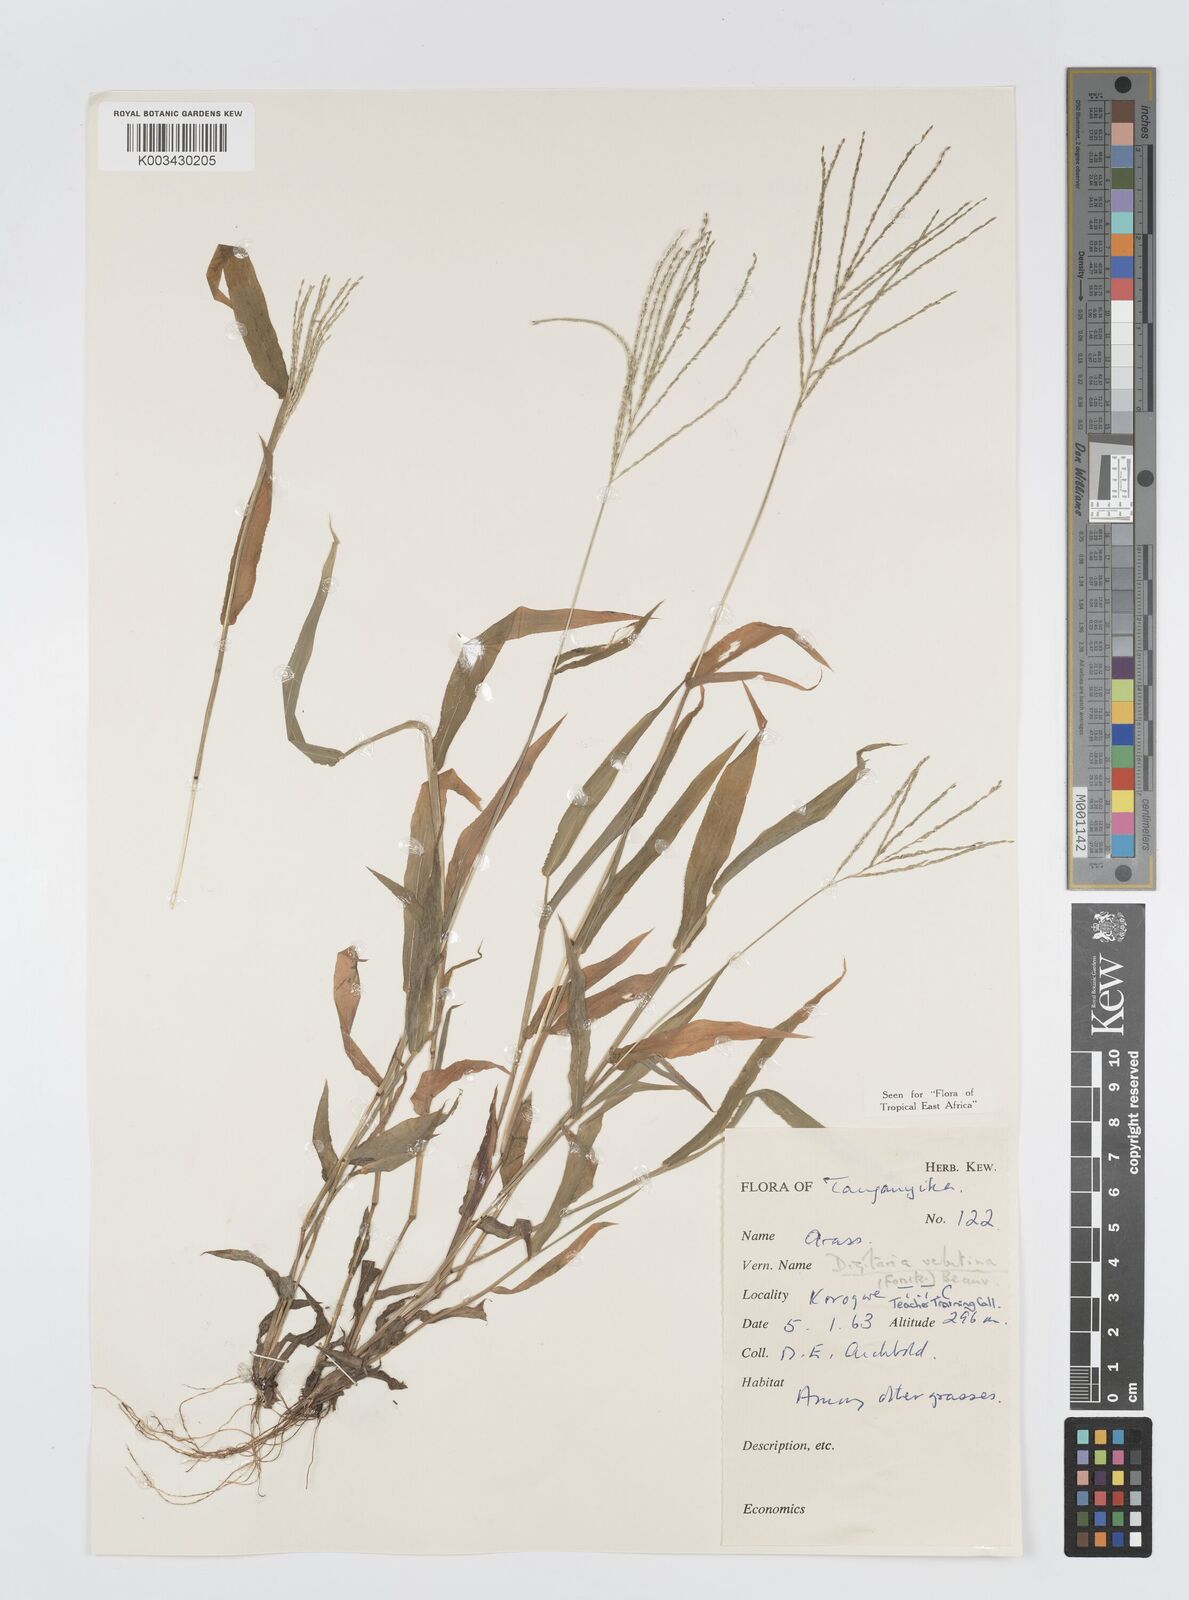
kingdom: Plantae
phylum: Tracheophyta
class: Liliopsida
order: Poales
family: Poaceae
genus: Digitaria
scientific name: Digitaria velutina
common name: Long-plume finger grass
